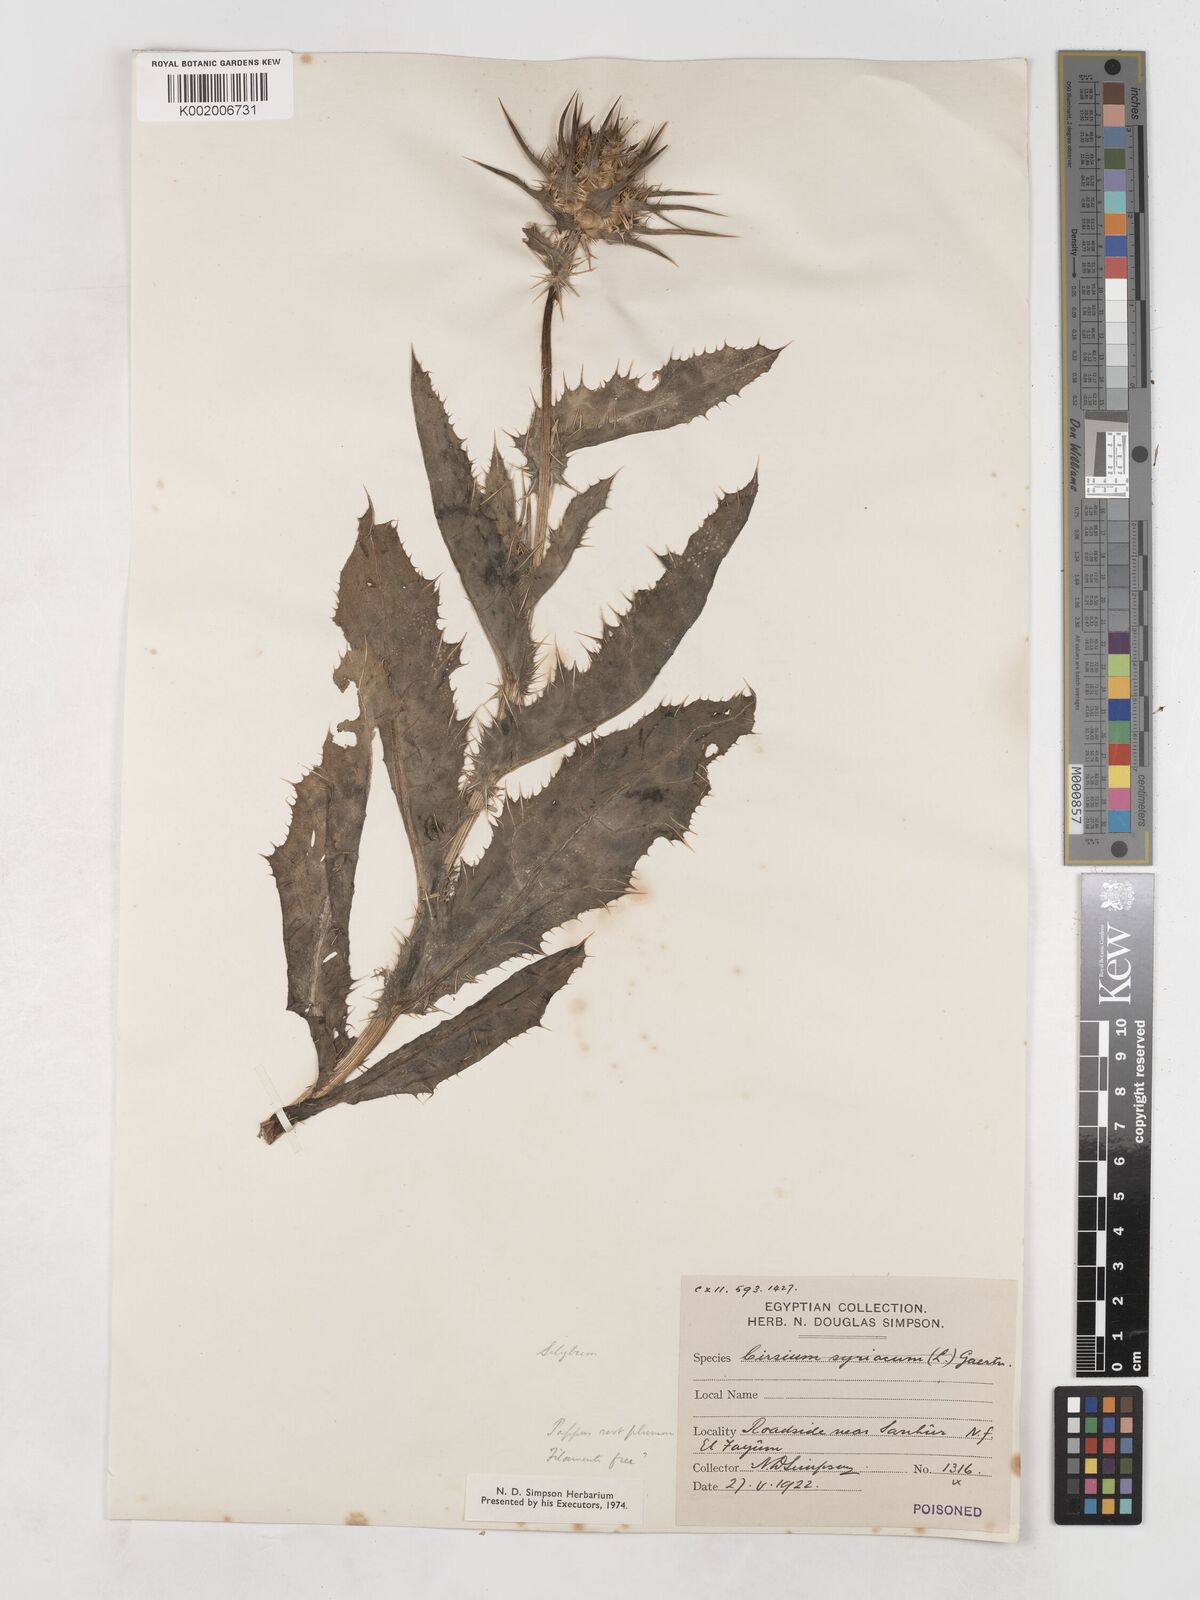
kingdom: Plantae
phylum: Tracheophyta
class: Magnoliopsida
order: Asterales
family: Asteraceae
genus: Silybum
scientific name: Silybum marianum
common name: Milk thistle
